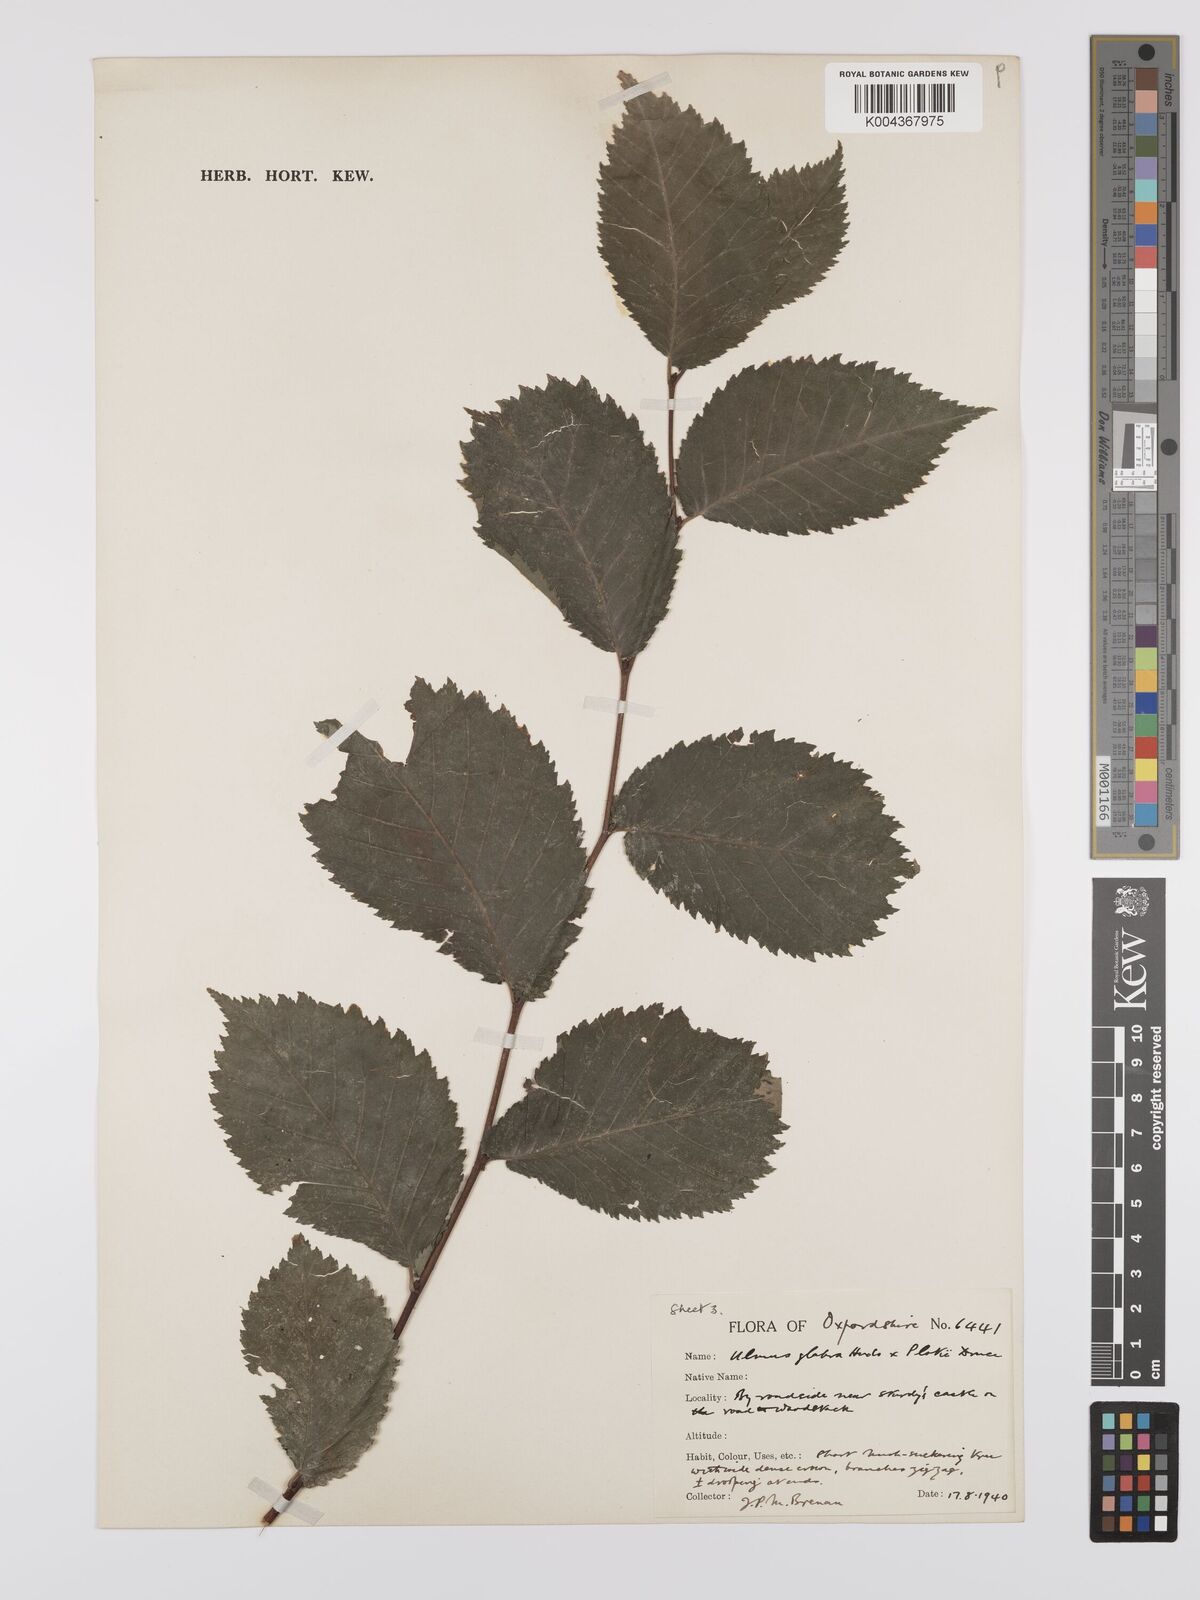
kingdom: Plantae
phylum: Tracheophyta
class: Magnoliopsida
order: Rosales
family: Ulmaceae
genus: Ulmus
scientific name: Ulmus minor
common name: Small-leaved elm
